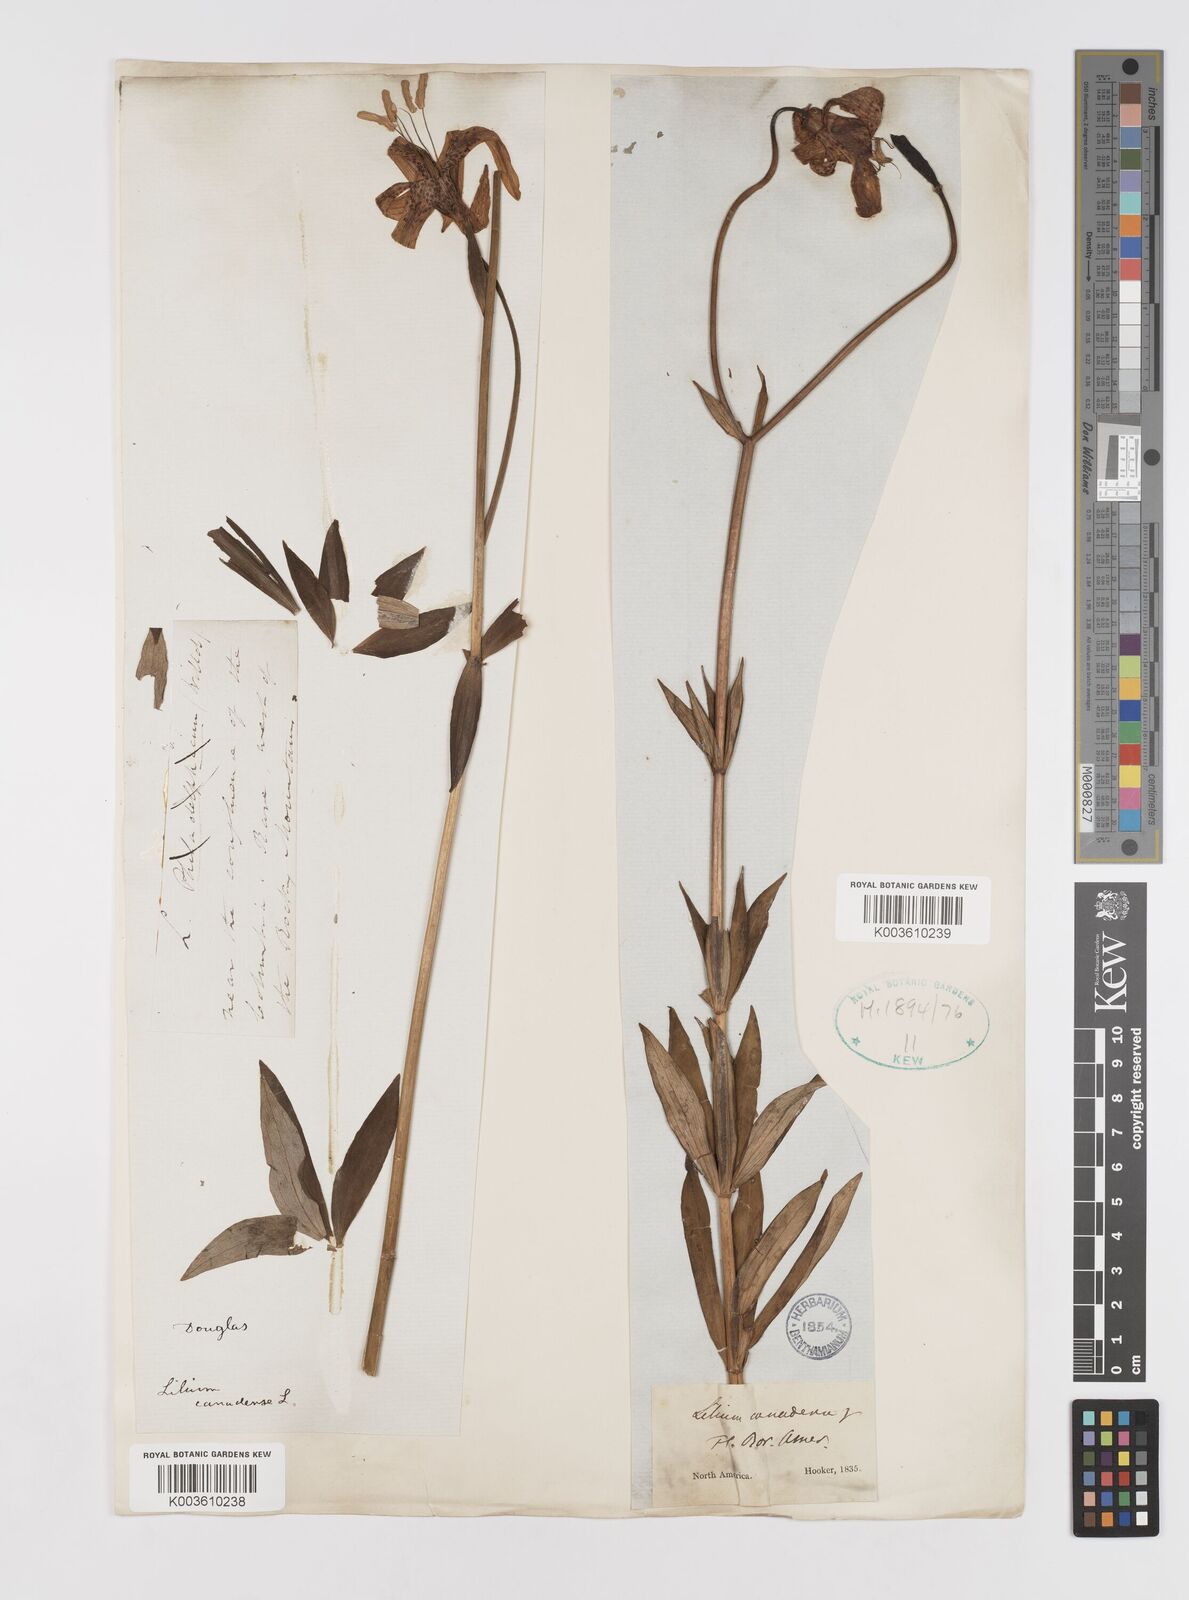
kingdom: Plantae
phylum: Tracheophyta
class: Liliopsida
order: Liliales
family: Liliaceae
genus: Lilium
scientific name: Lilium canadense
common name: Canada lily
